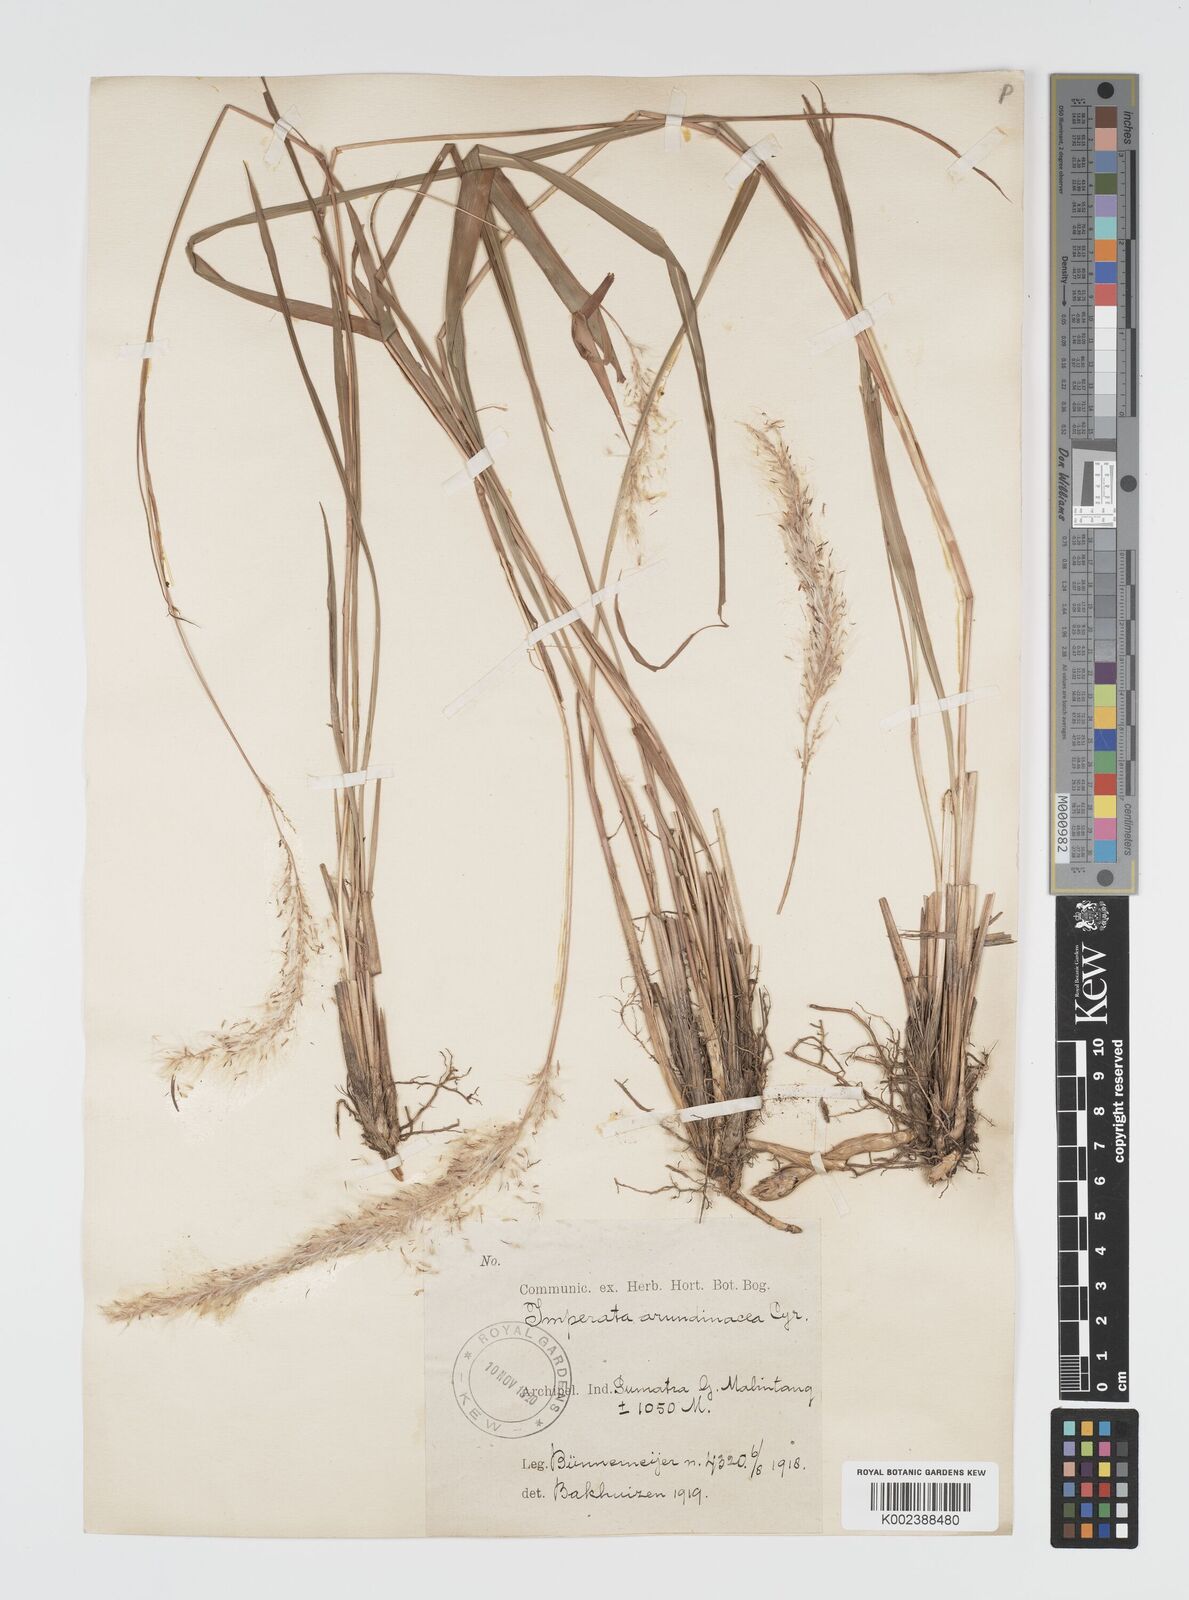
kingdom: Plantae
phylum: Tracheophyta
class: Liliopsida
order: Poales
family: Poaceae
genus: Imperata
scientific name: Imperata cylindrica
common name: Cogongrass
